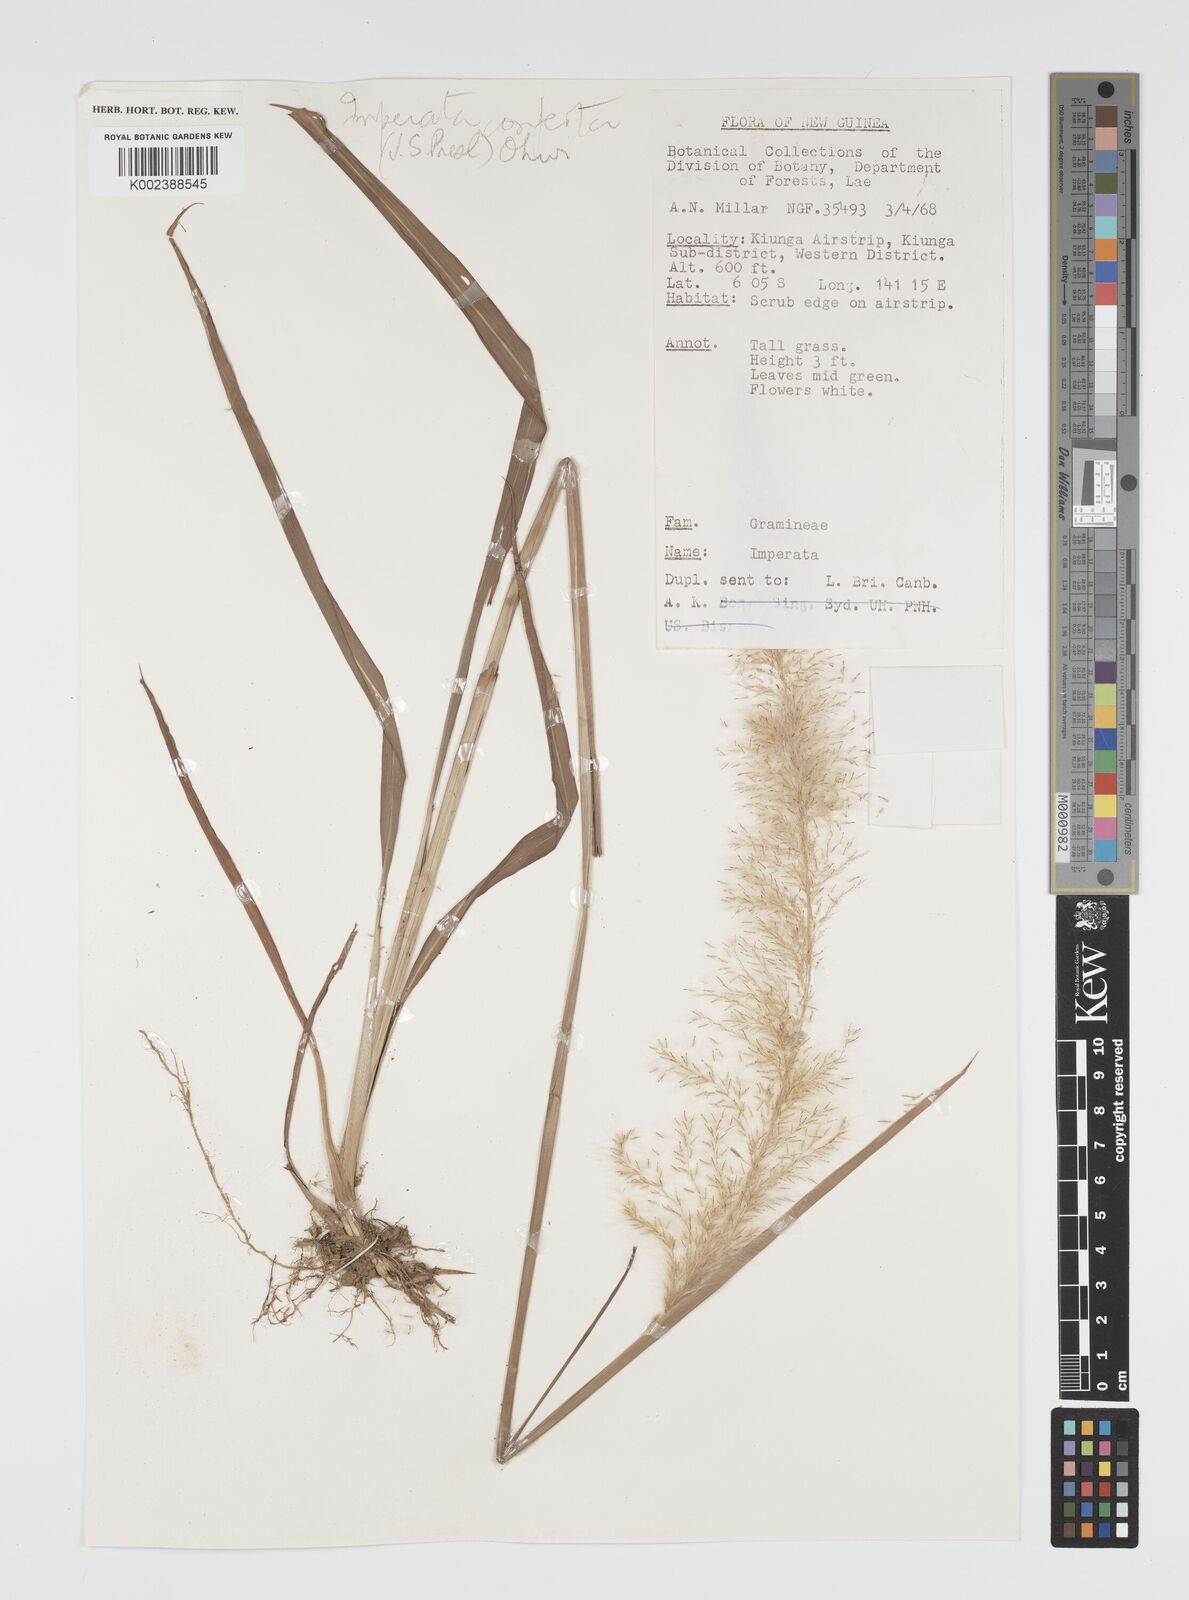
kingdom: Plantae
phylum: Tracheophyta
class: Liliopsida
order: Poales
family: Poaceae
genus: Imperata
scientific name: Imperata conferta
